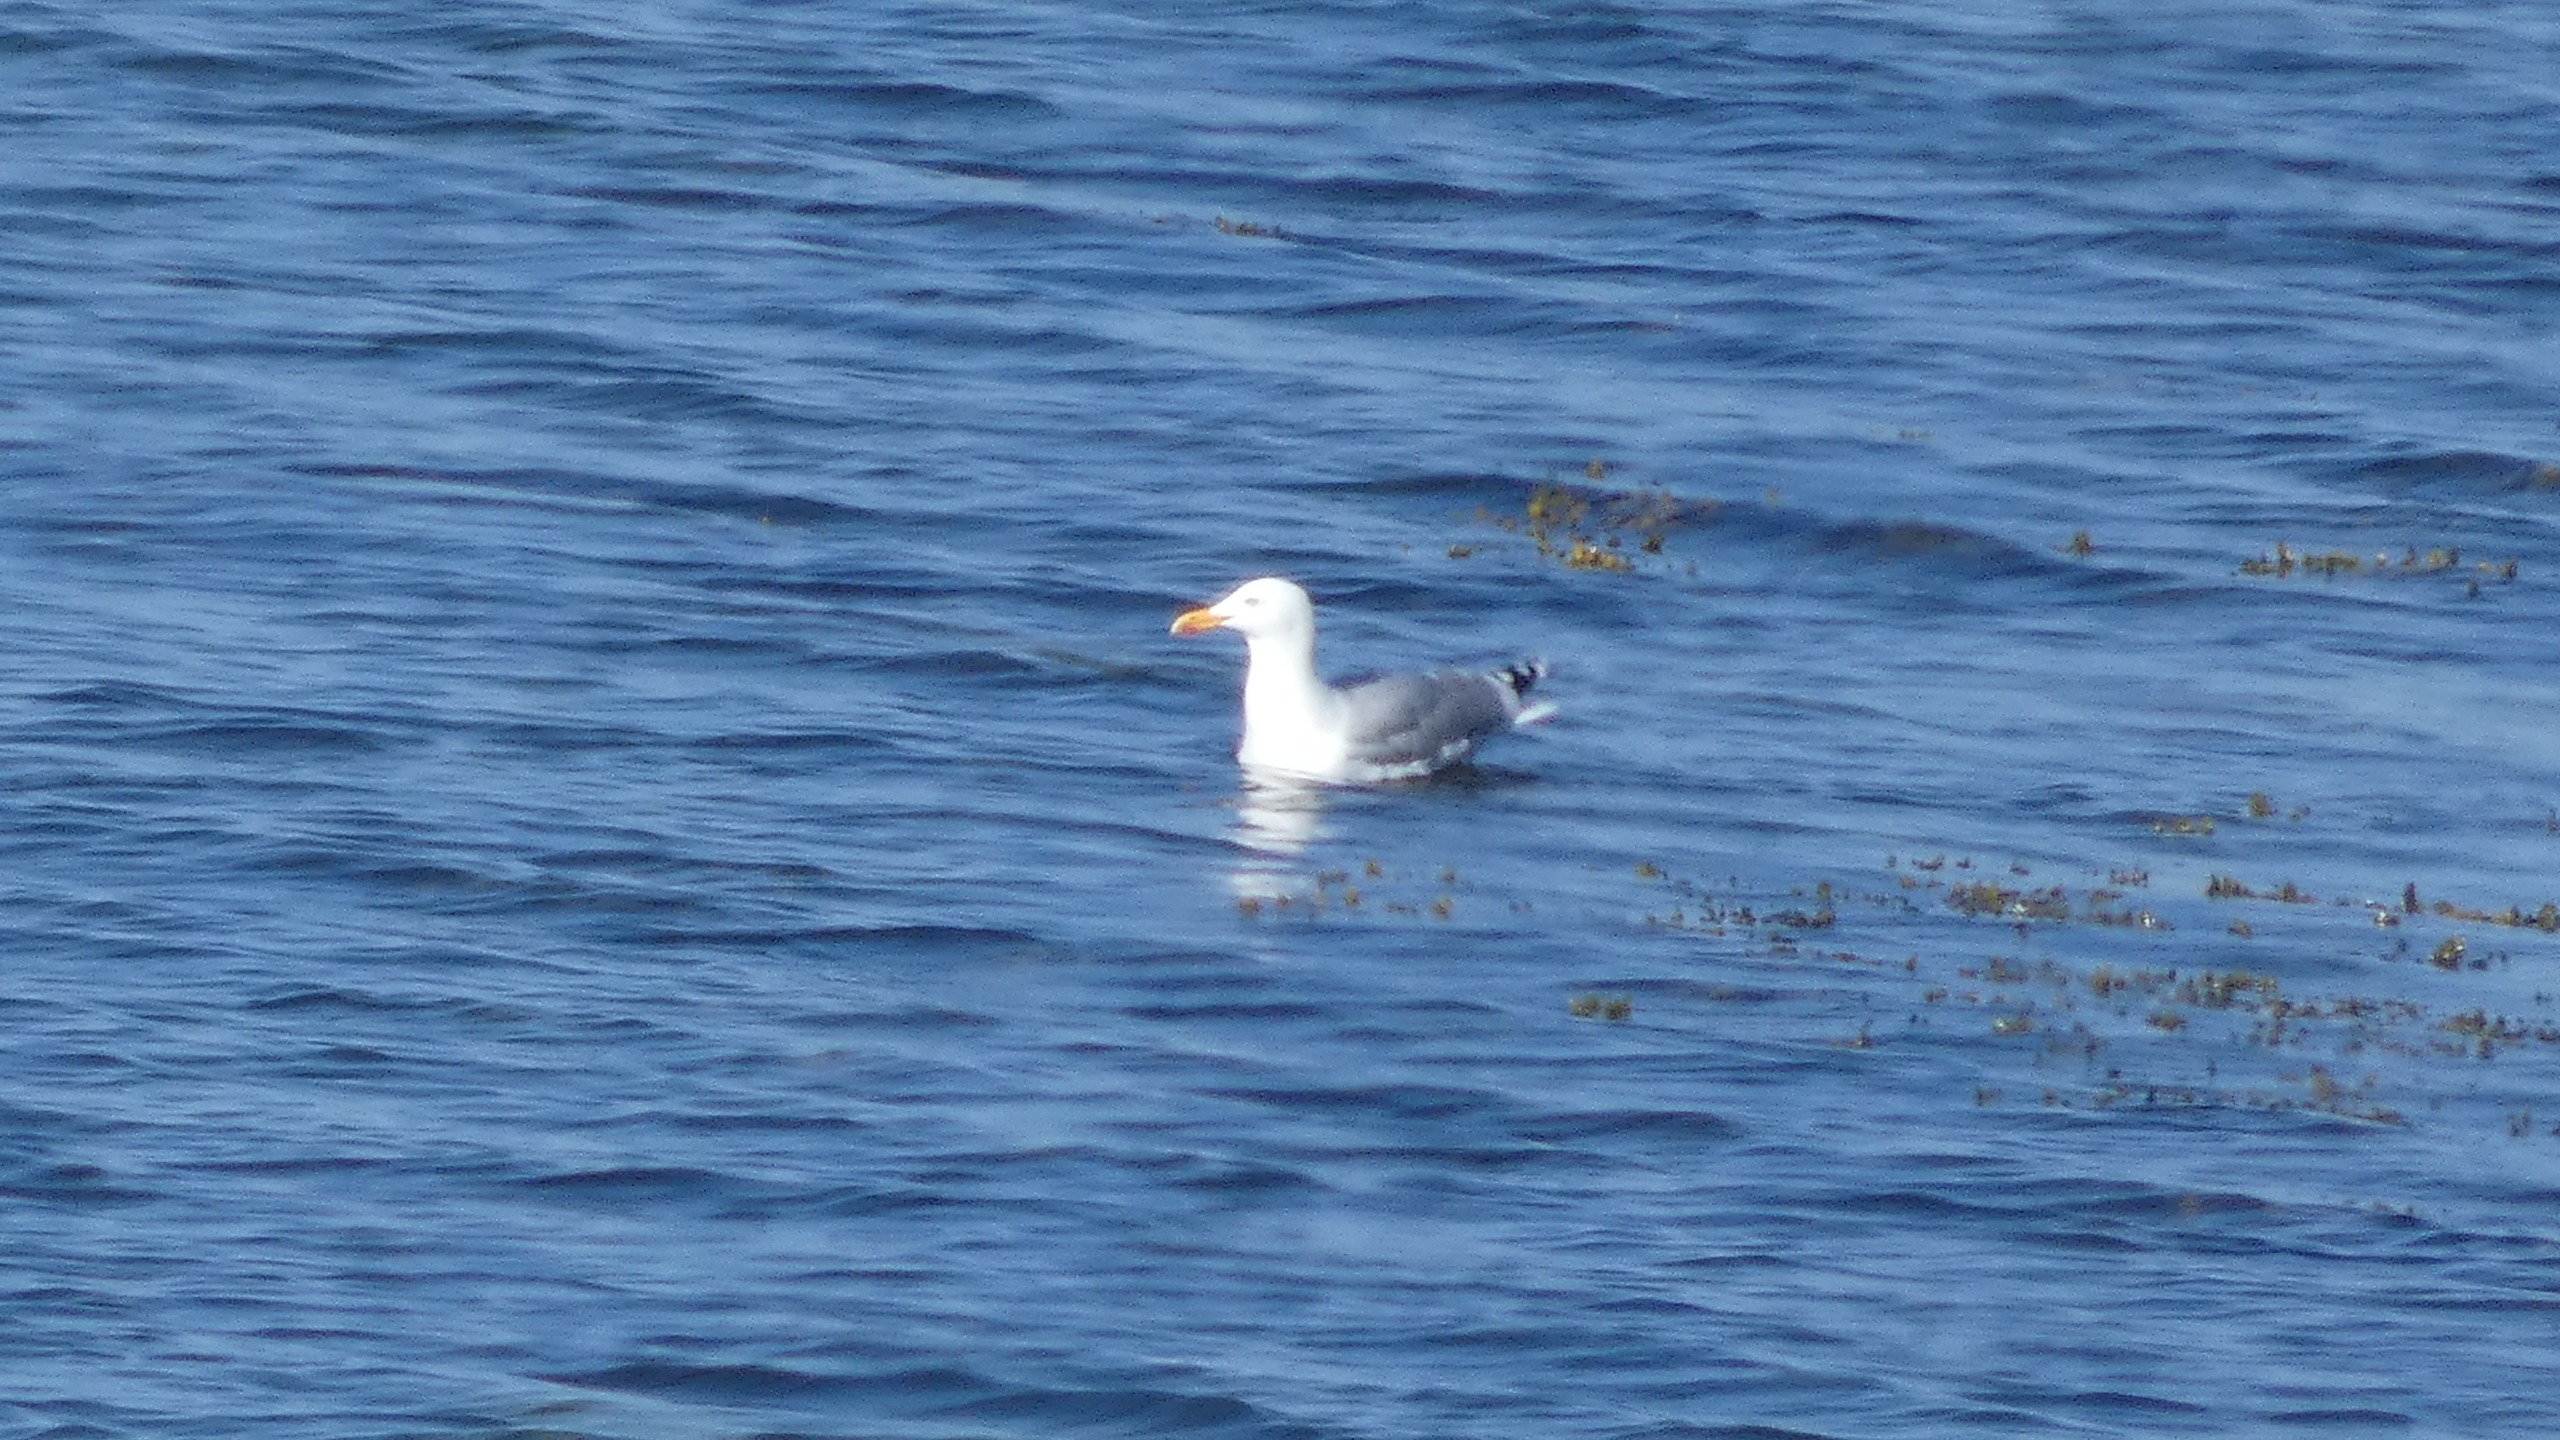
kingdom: Animalia
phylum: Chordata
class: Aves
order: Charadriiformes
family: Laridae
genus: Larus
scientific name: Larus argentatus
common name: Sølvmåge
